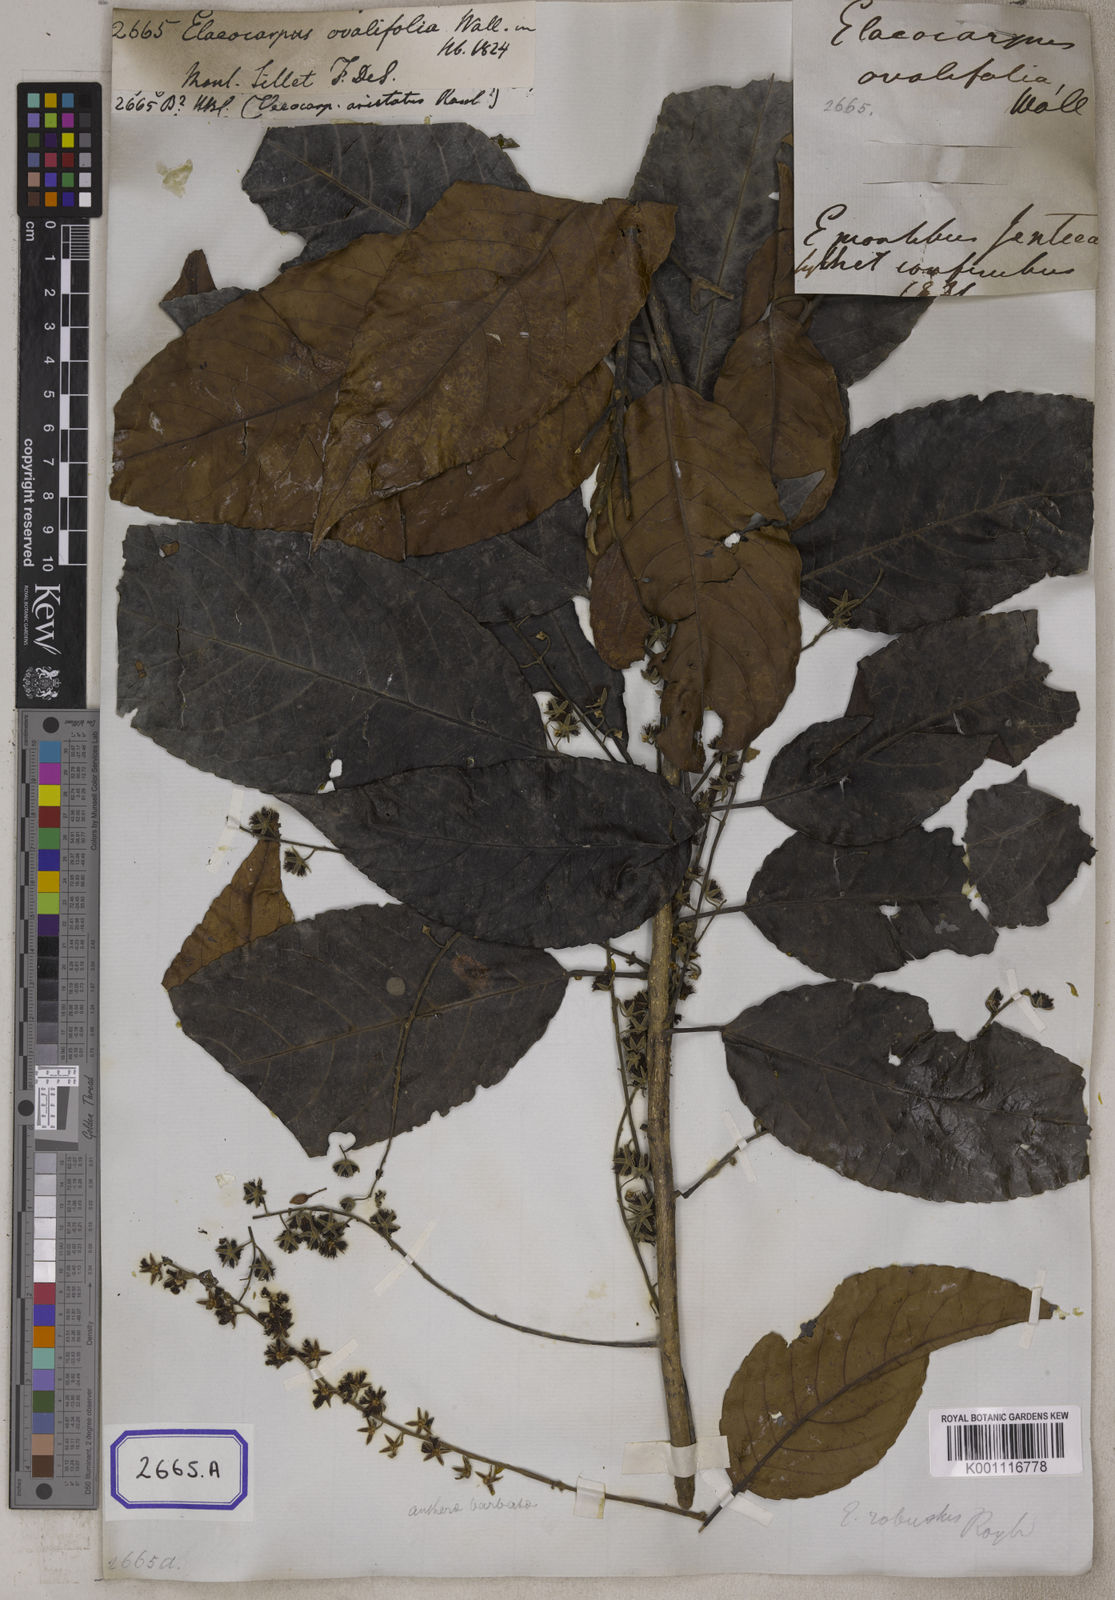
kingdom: Plantae
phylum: Tracheophyta
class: Magnoliopsida
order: Oxalidales
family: Elaeocarpaceae
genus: Elaeocarpus
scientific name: Elaeocarpus
